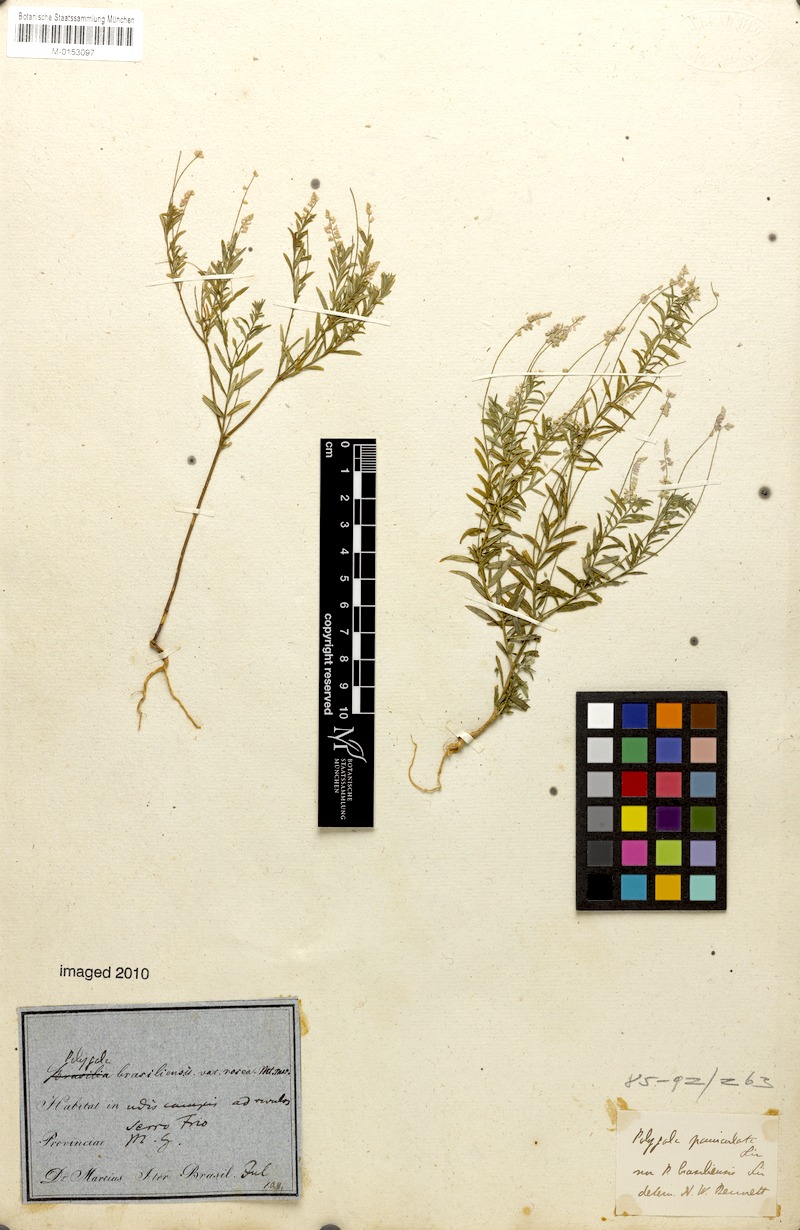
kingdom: Plantae
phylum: Tracheophyta
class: Magnoliopsida
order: Fabales
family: Polygalaceae
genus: Polygala
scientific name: Polygala brasiliensis
